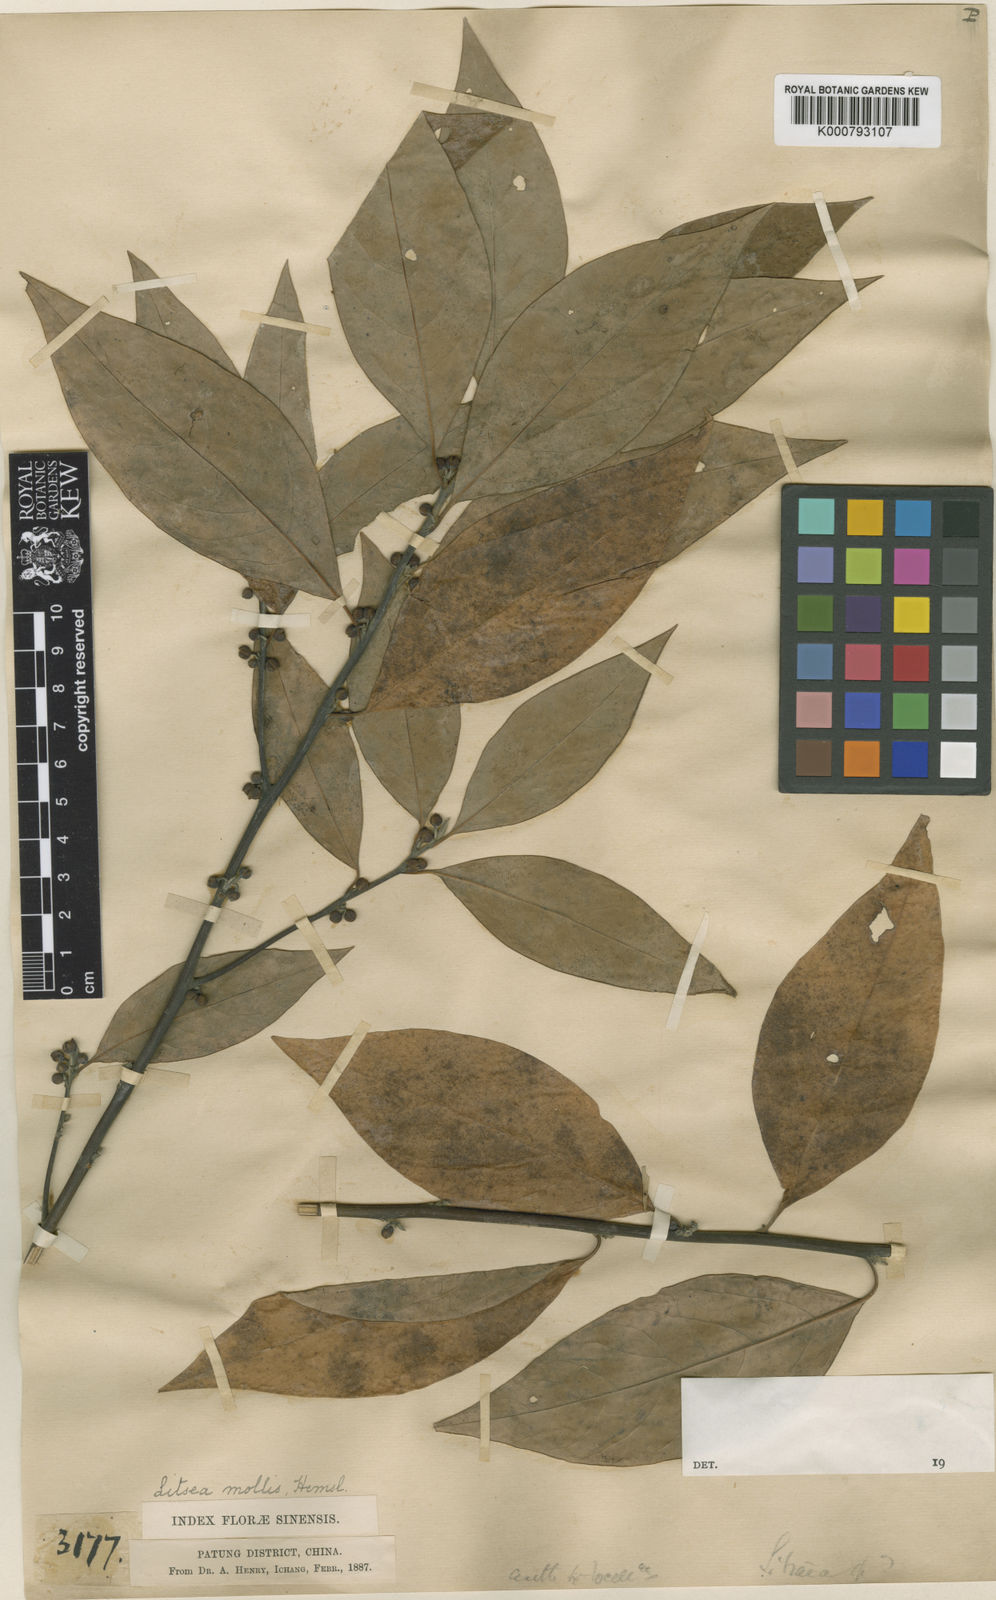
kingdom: Plantae
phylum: Tracheophyta
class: Magnoliopsida
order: Laurales
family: Lauraceae
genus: Litsea
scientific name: Litsea euosma
